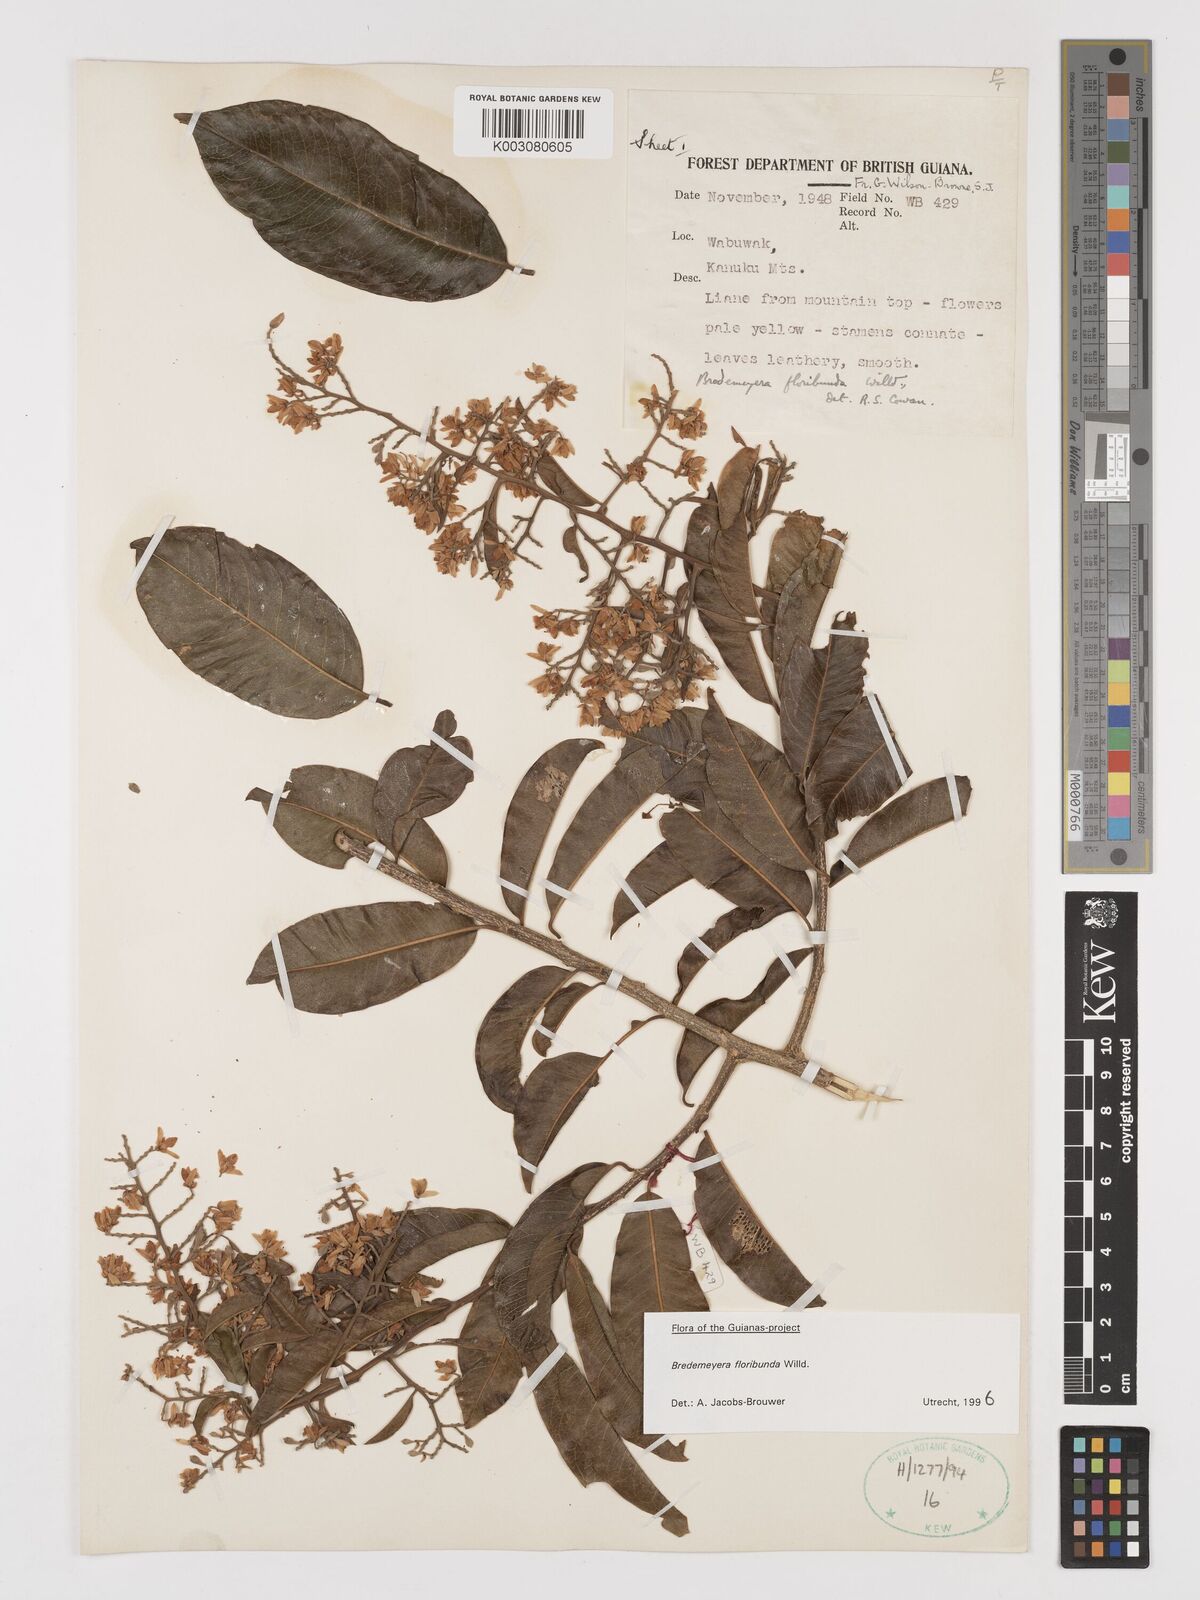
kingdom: Plantae
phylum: Tracheophyta
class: Magnoliopsida
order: Fabales
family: Polygalaceae
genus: Bredemeyera
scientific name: Bredemeyera floribunda
